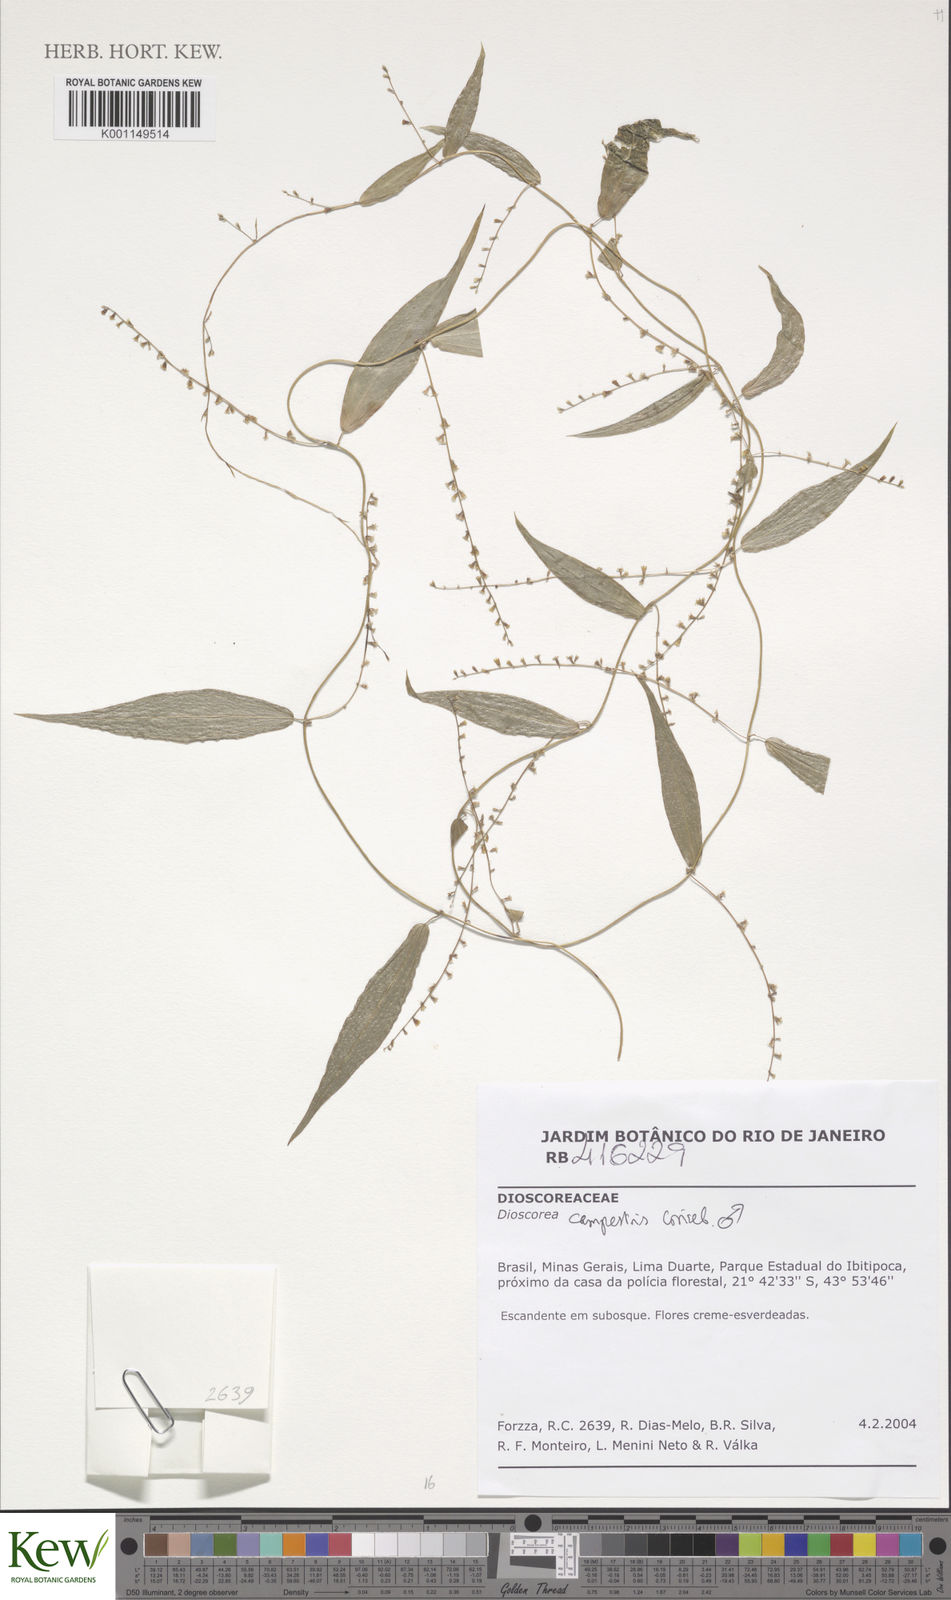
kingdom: Plantae
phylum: Tracheophyta
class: Liliopsida
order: Dioscoreales
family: Dioscoreaceae
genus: Dioscorea
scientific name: Dioscorea campestris
